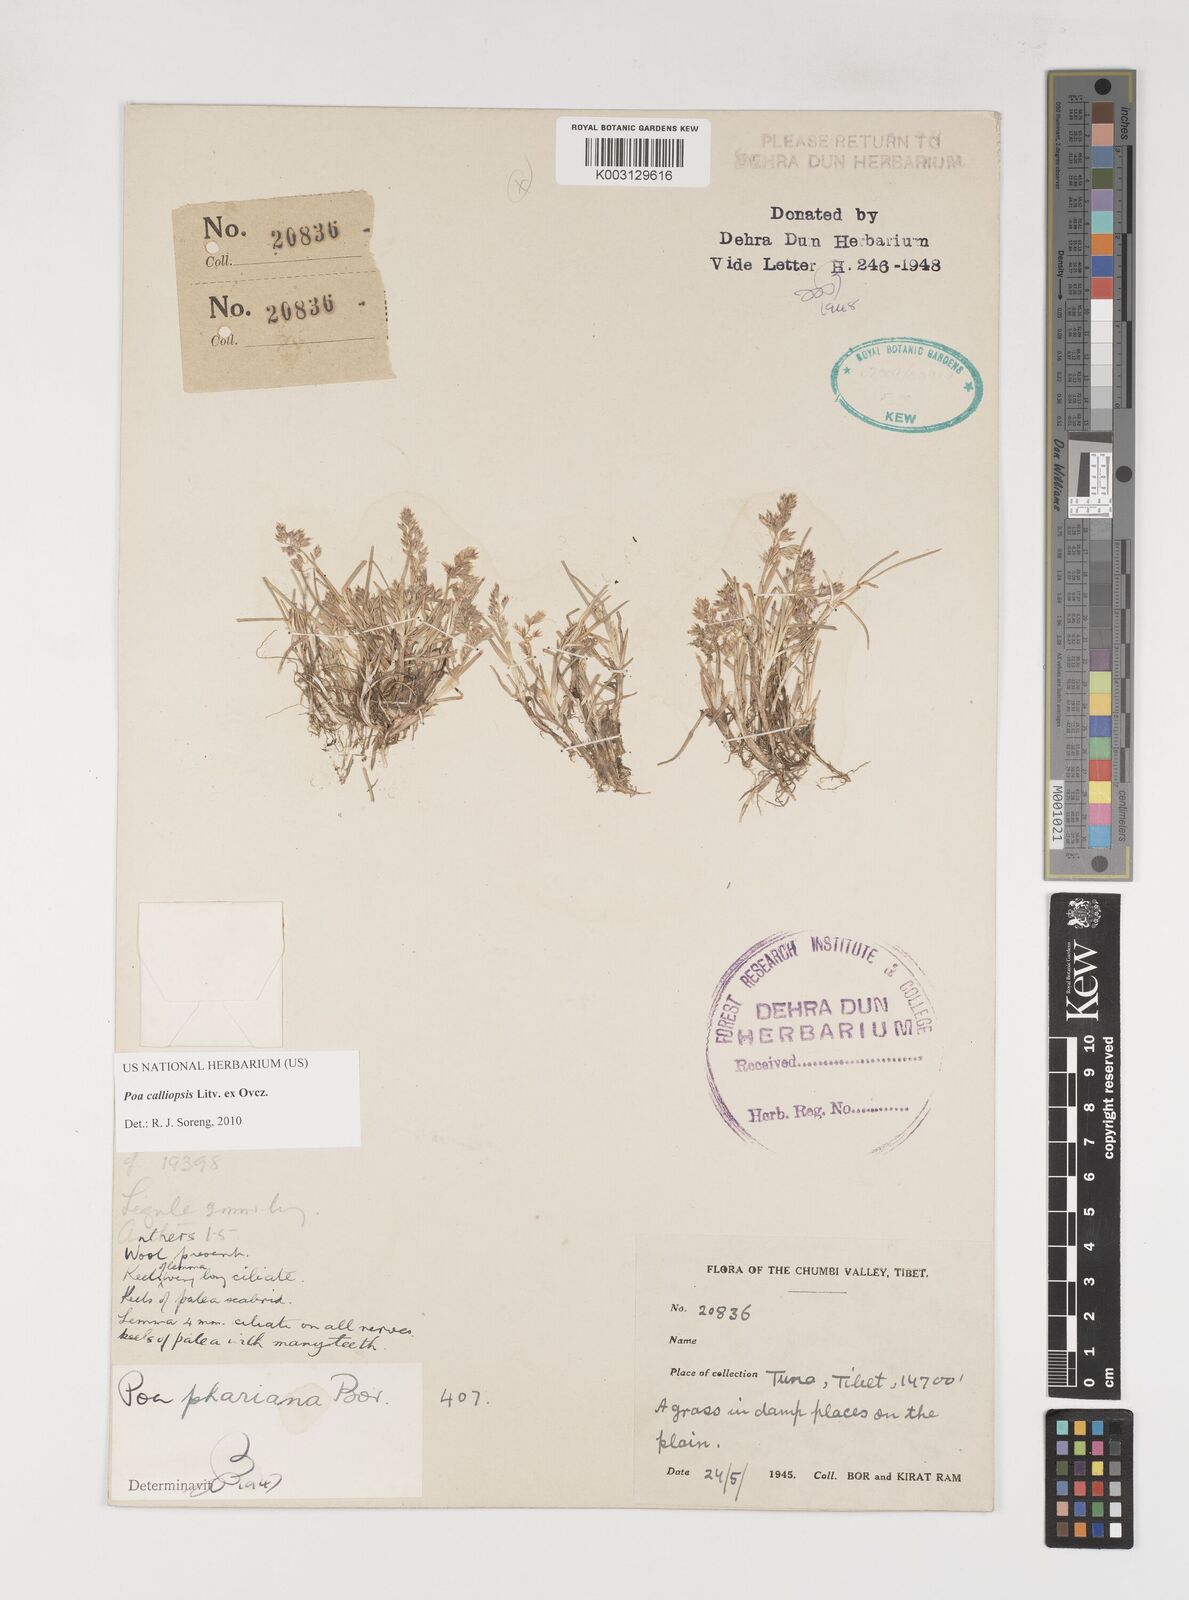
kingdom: Plantae
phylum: Tracheophyta
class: Liliopsida
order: Poales
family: Poaceae
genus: Poa
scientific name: Poa calliopsis
